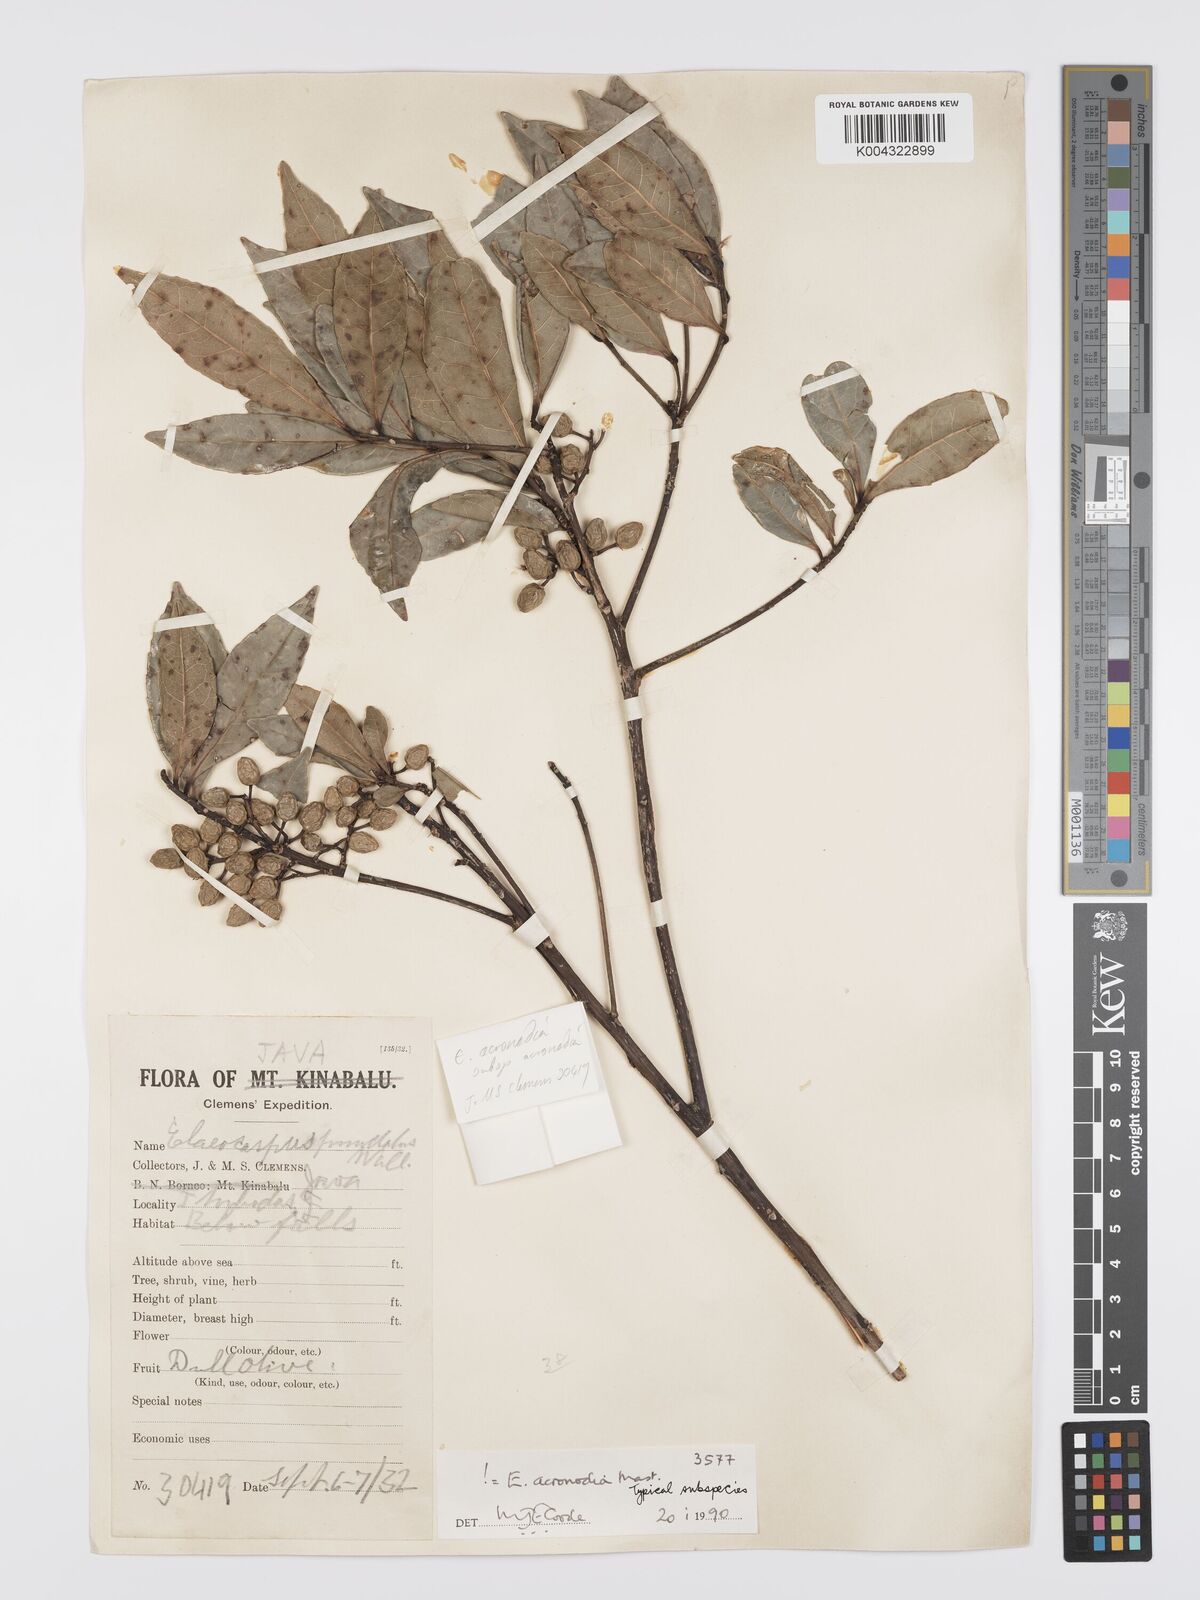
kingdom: Plantae
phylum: Tracheophyta
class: Magnoliopsida
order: Oxalidales
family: Elaeocarpaceae
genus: Elaeocarpus
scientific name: Elaeocarpus acronodia
